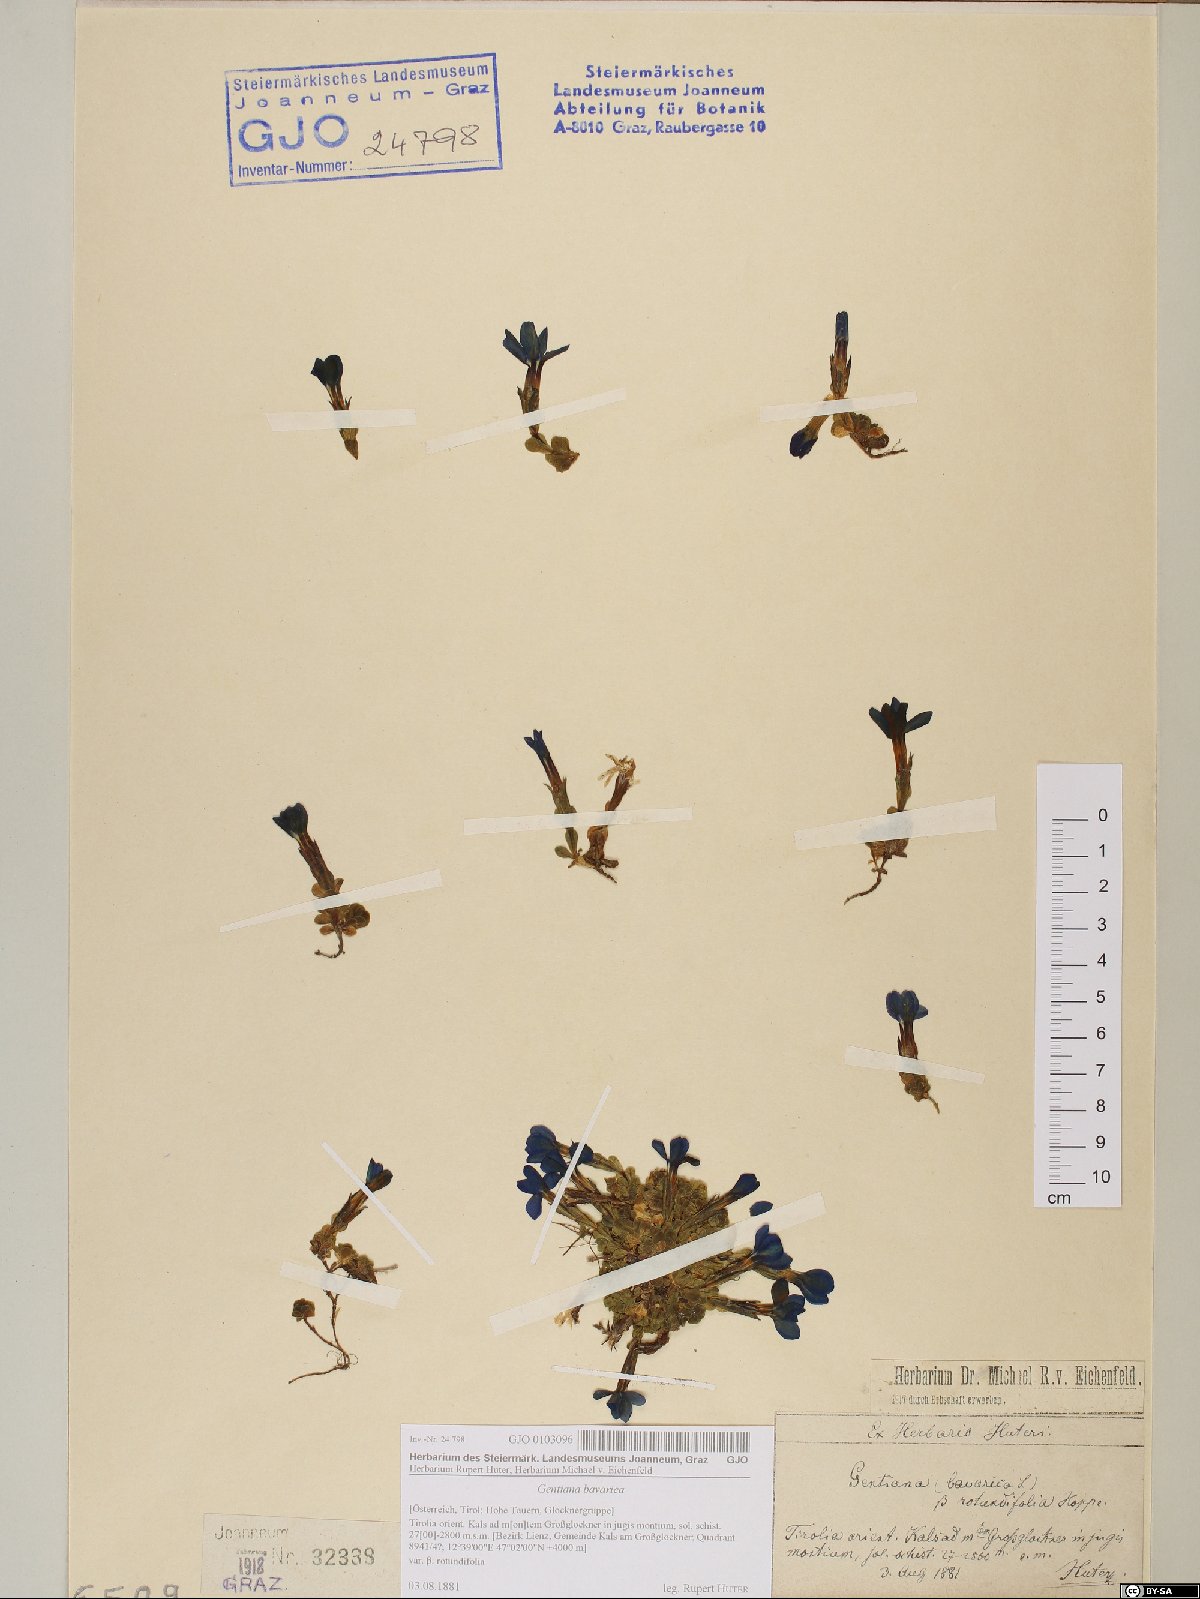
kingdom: Plantae
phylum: Tracheophyta
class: Magnoliopsida
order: Gentianales
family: Gentianaceae
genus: Gentiana
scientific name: Gentiana bavarica
